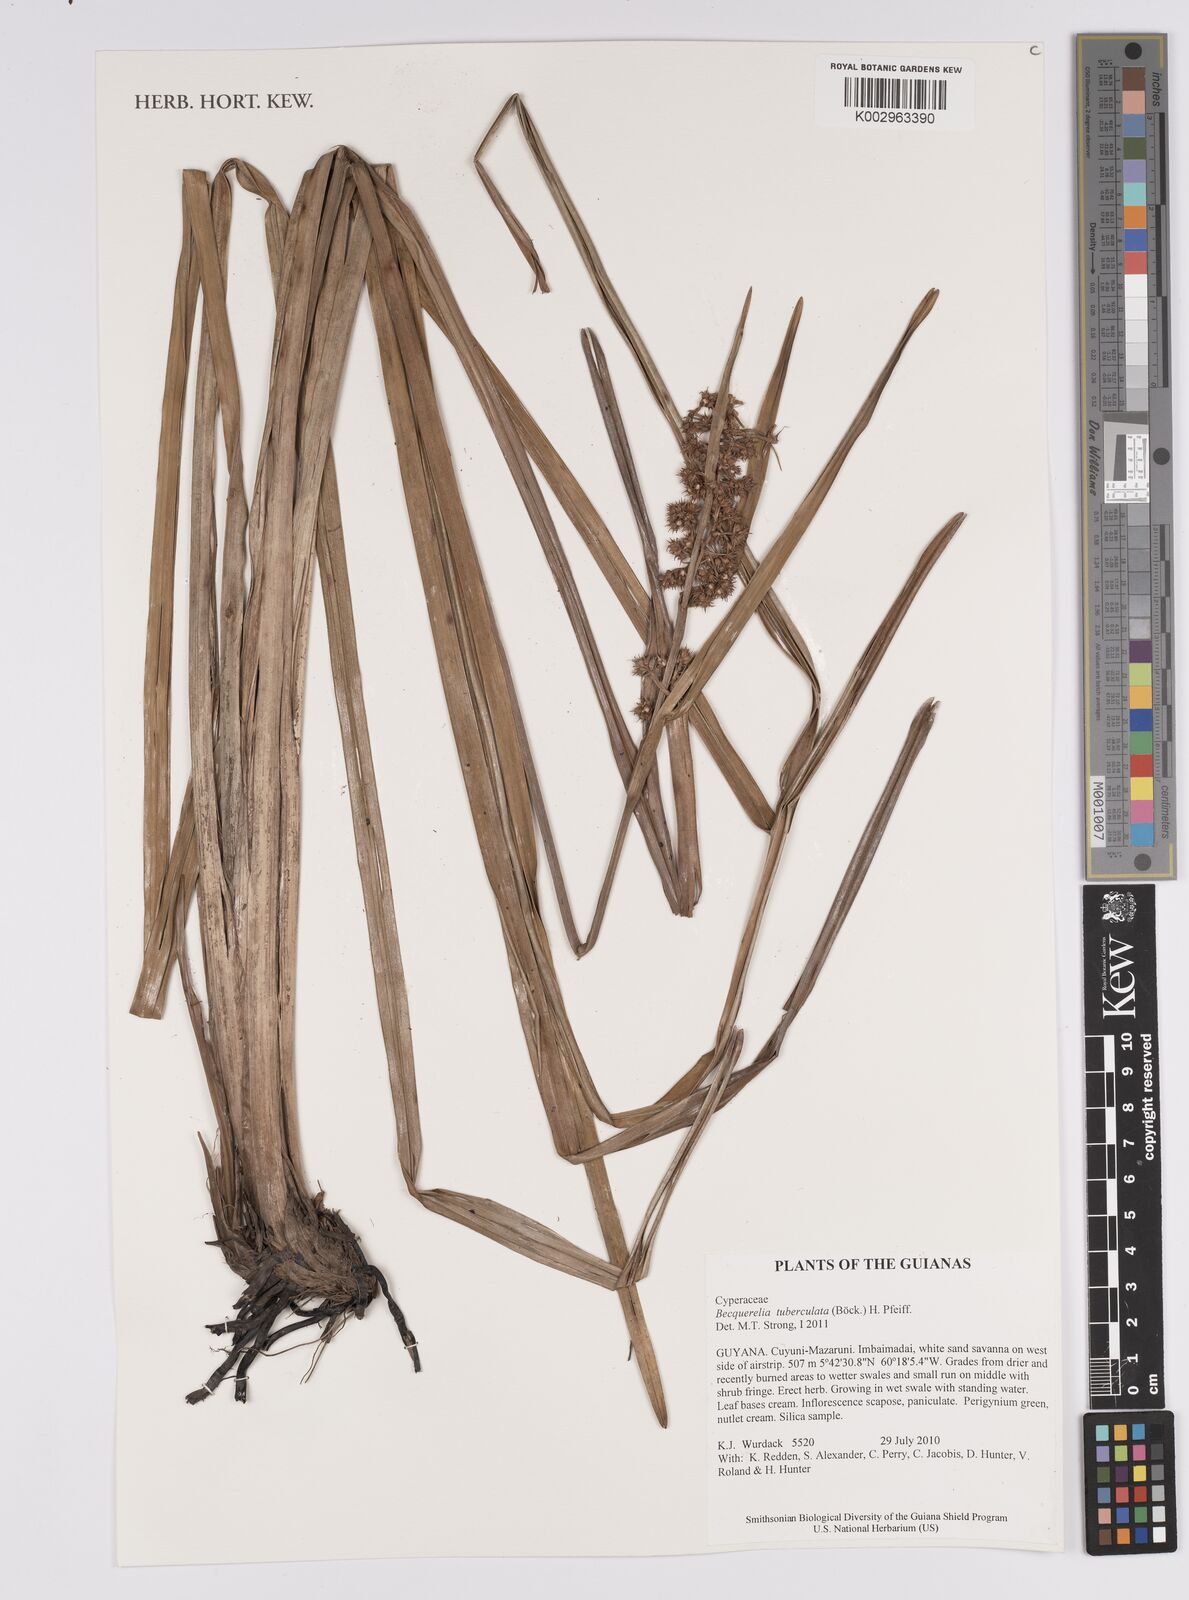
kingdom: Plantae
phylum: Tracheophyta
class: Liliopsida
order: Poales
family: Cyperaceae
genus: Becquerelia
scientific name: Becquerelia tuberculata
